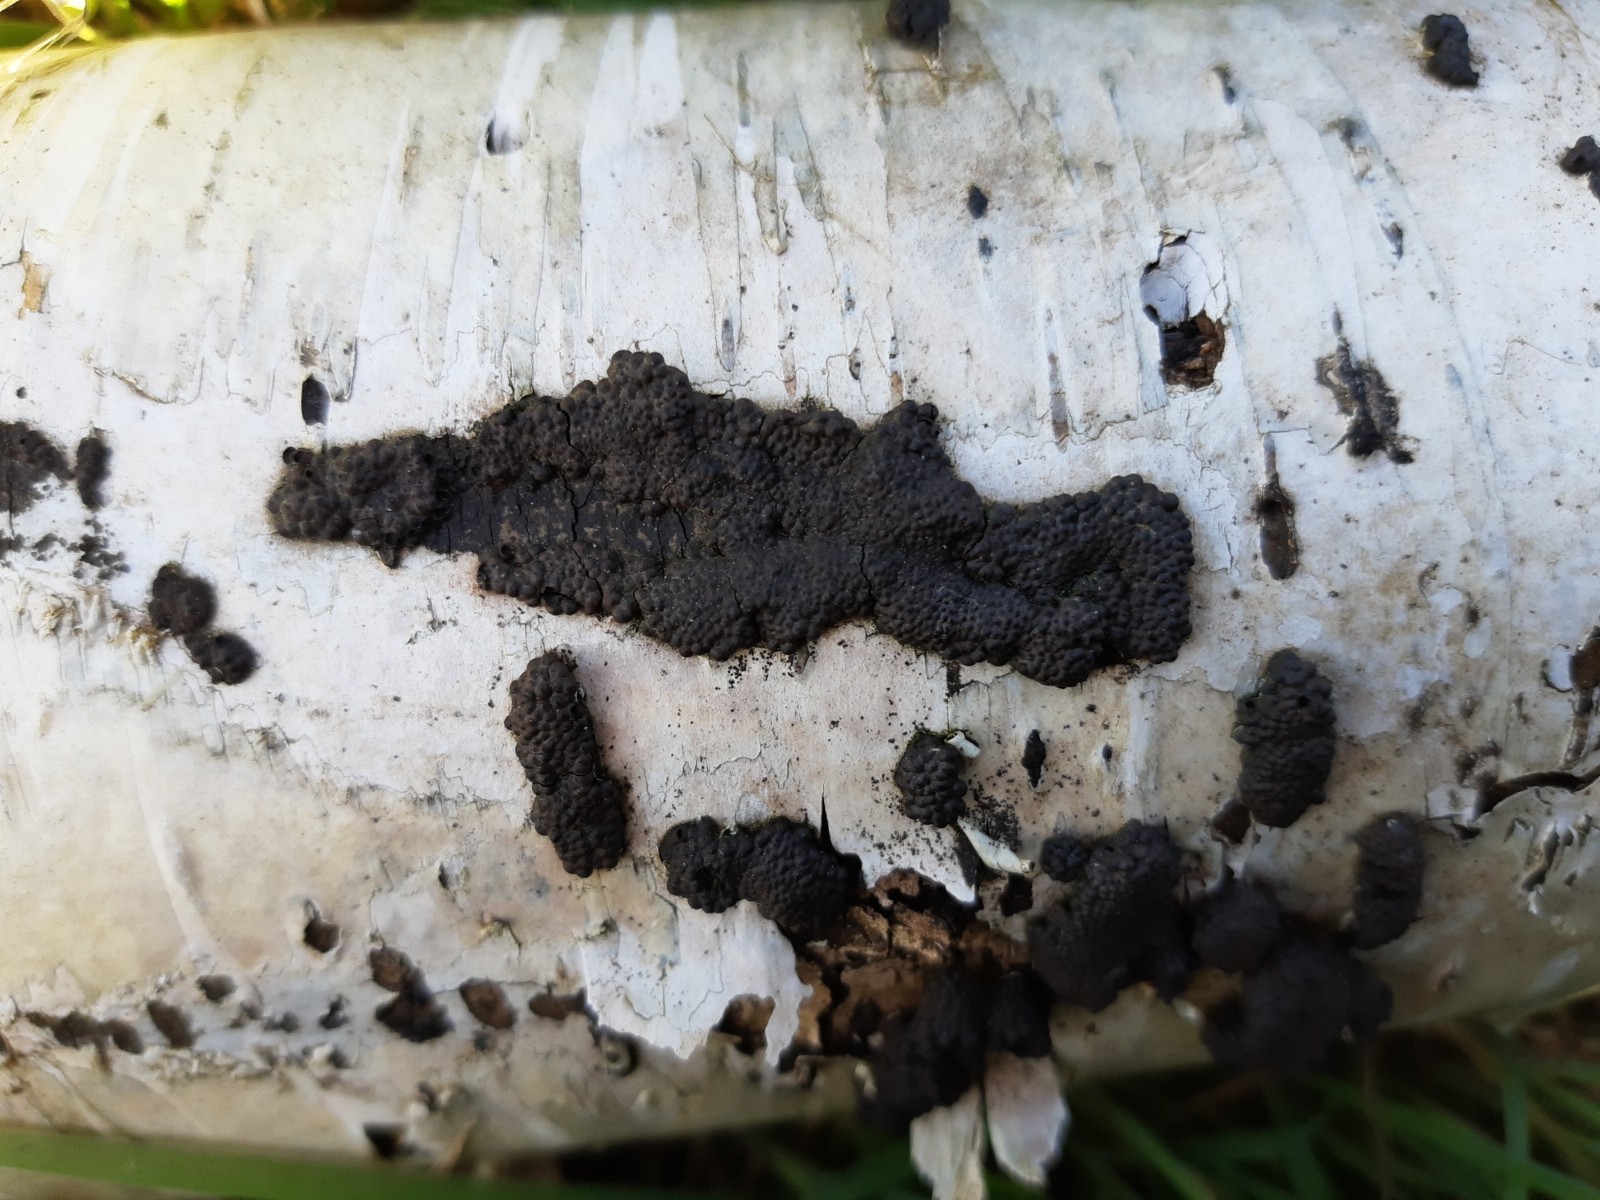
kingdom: Fungi
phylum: Ascomycota
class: Sordariomycetes
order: Xylariales
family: Hypoxylaceae
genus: Jackrogersella
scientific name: Jackrogersella multiformis
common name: foranderlig kulbær
